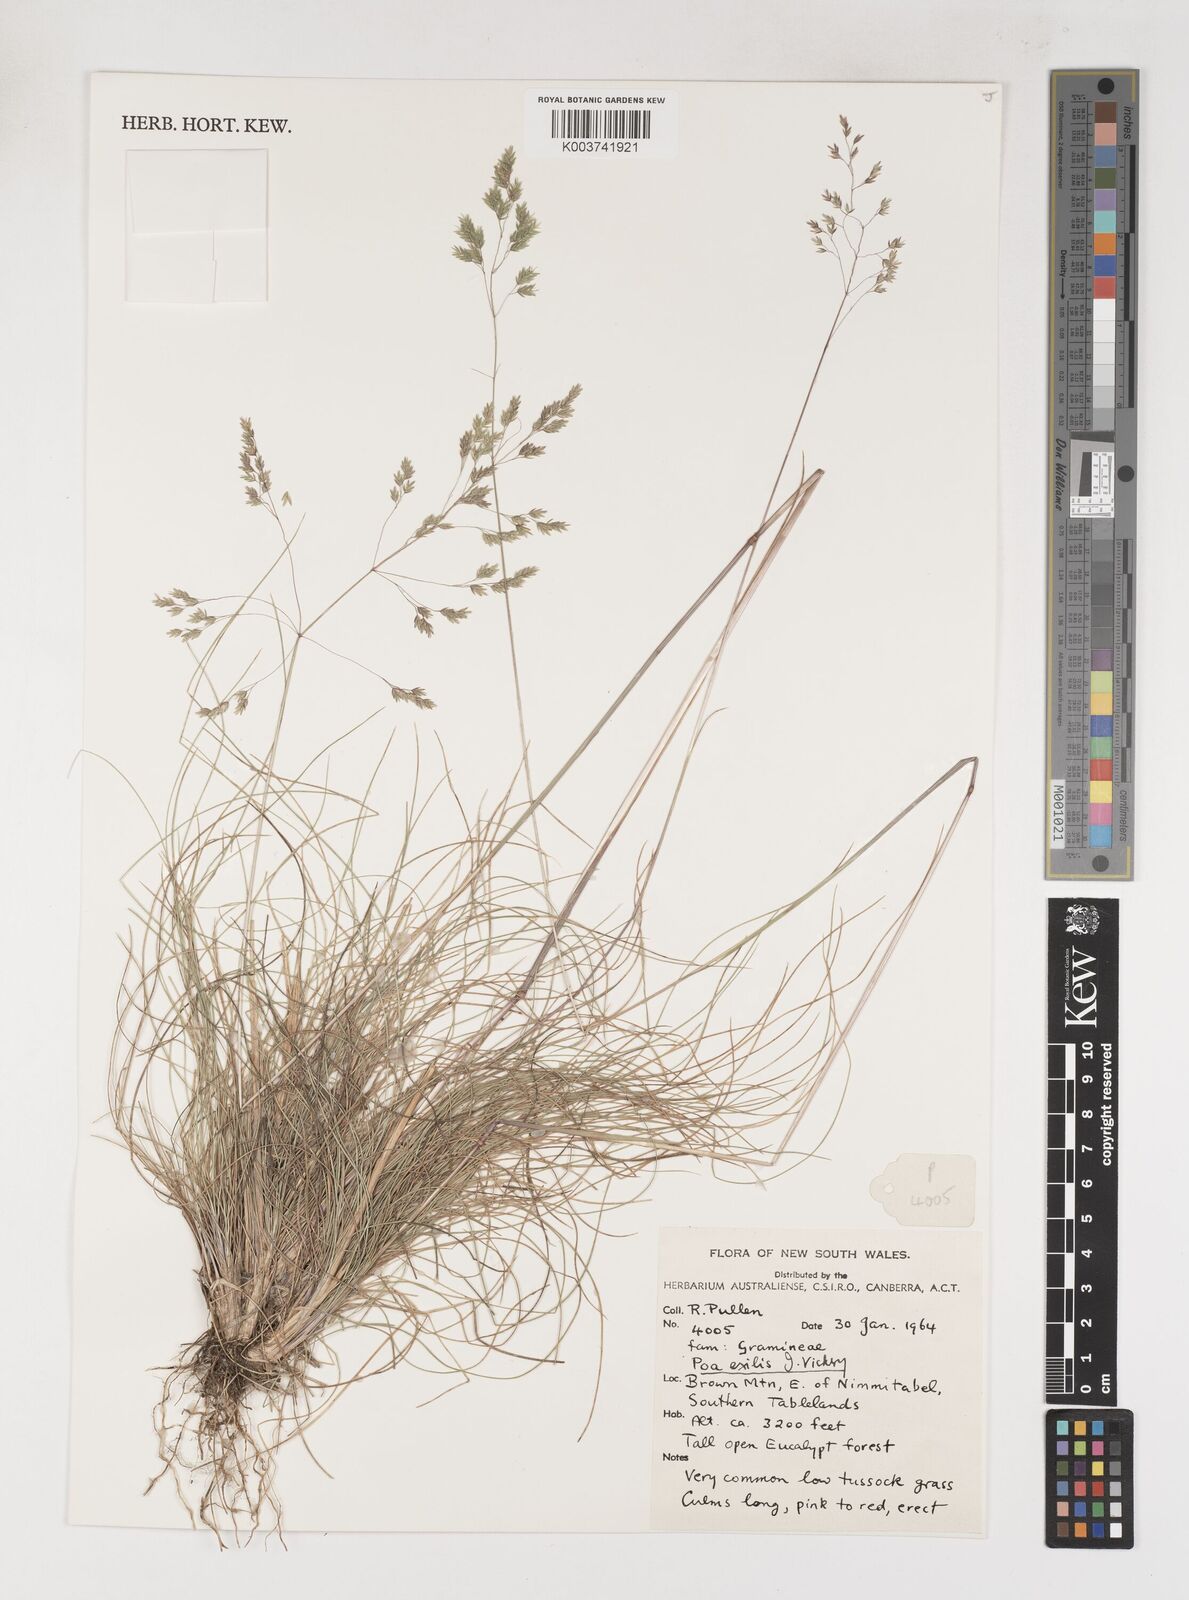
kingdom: Plantae
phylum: Tracheophyta
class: Liliopsida
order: Poales
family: Poaceae
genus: Poa
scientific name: Poa meionectes
